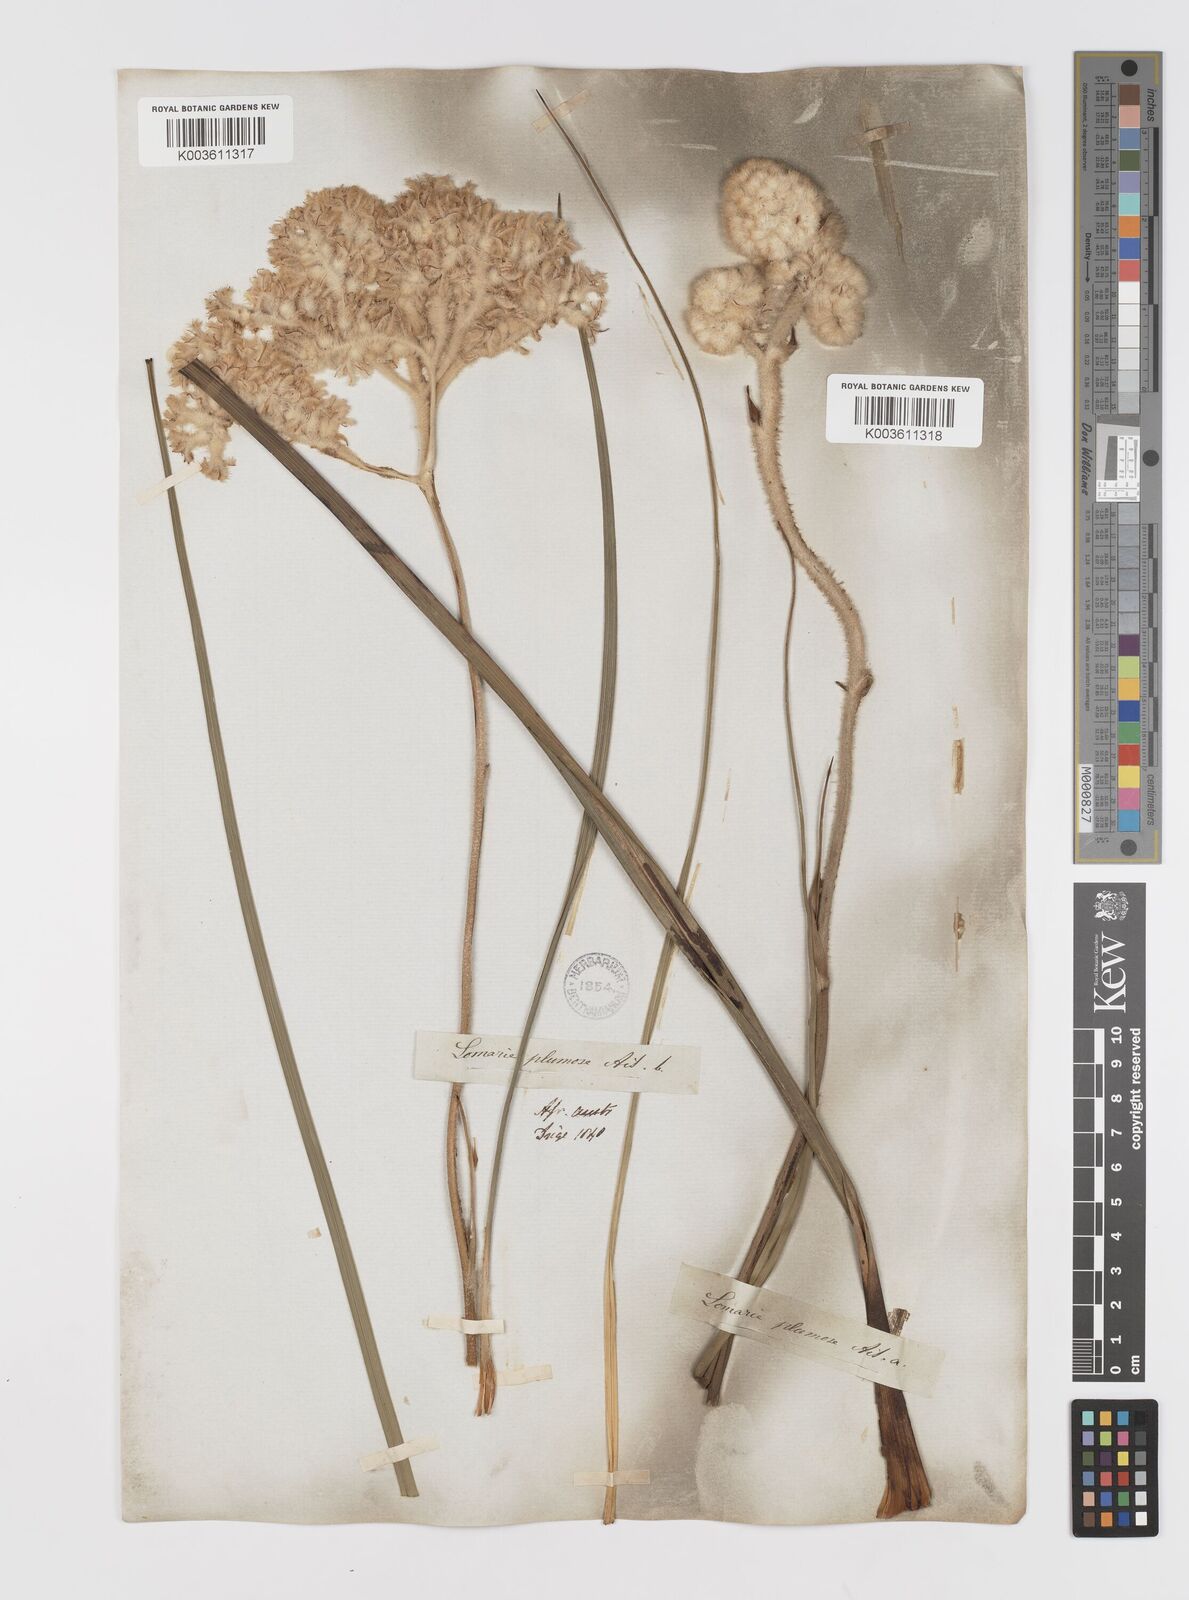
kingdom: Plantae
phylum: Tracheophyta
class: Liliopsida
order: Asparagales
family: Lanariaceae
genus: Lanaria
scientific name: Lanaria lanata
